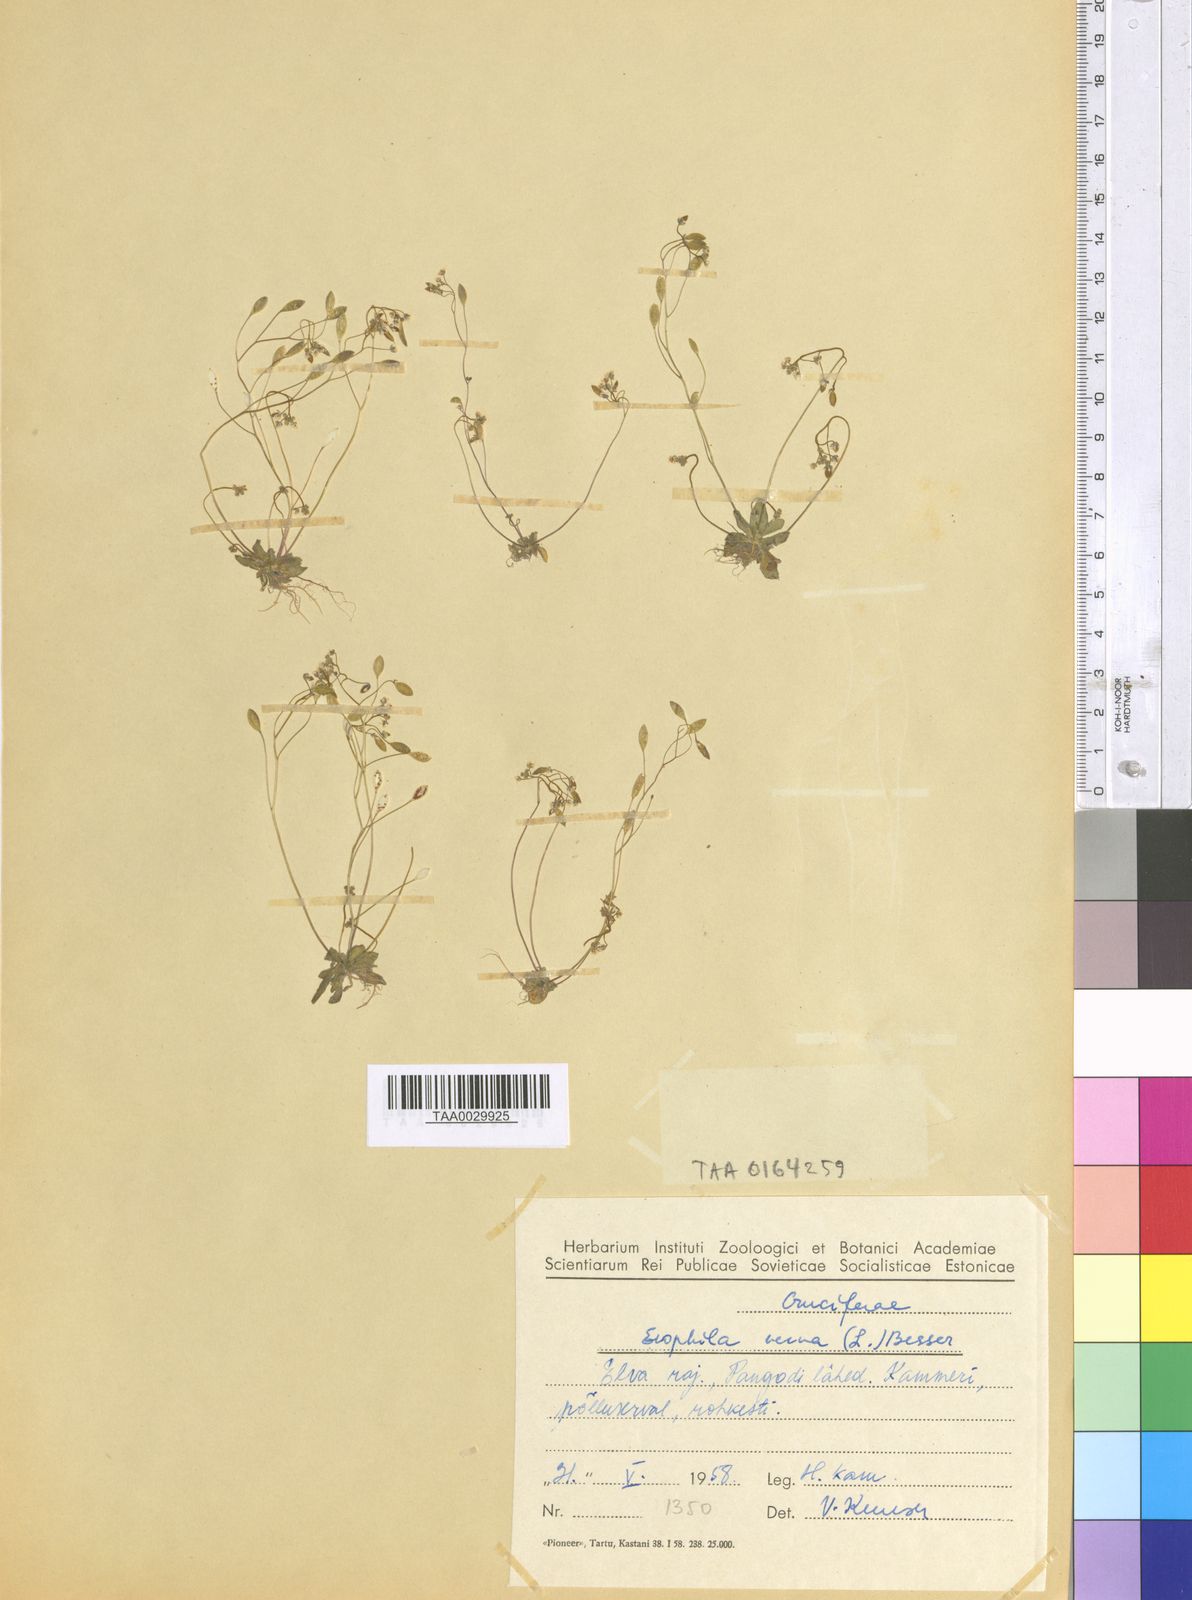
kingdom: Plantae
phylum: Tracheophyta
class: Magnoliopsida
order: Brassicales
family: Brassicaceae
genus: Draba
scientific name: Draba verna
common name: Spring draba
